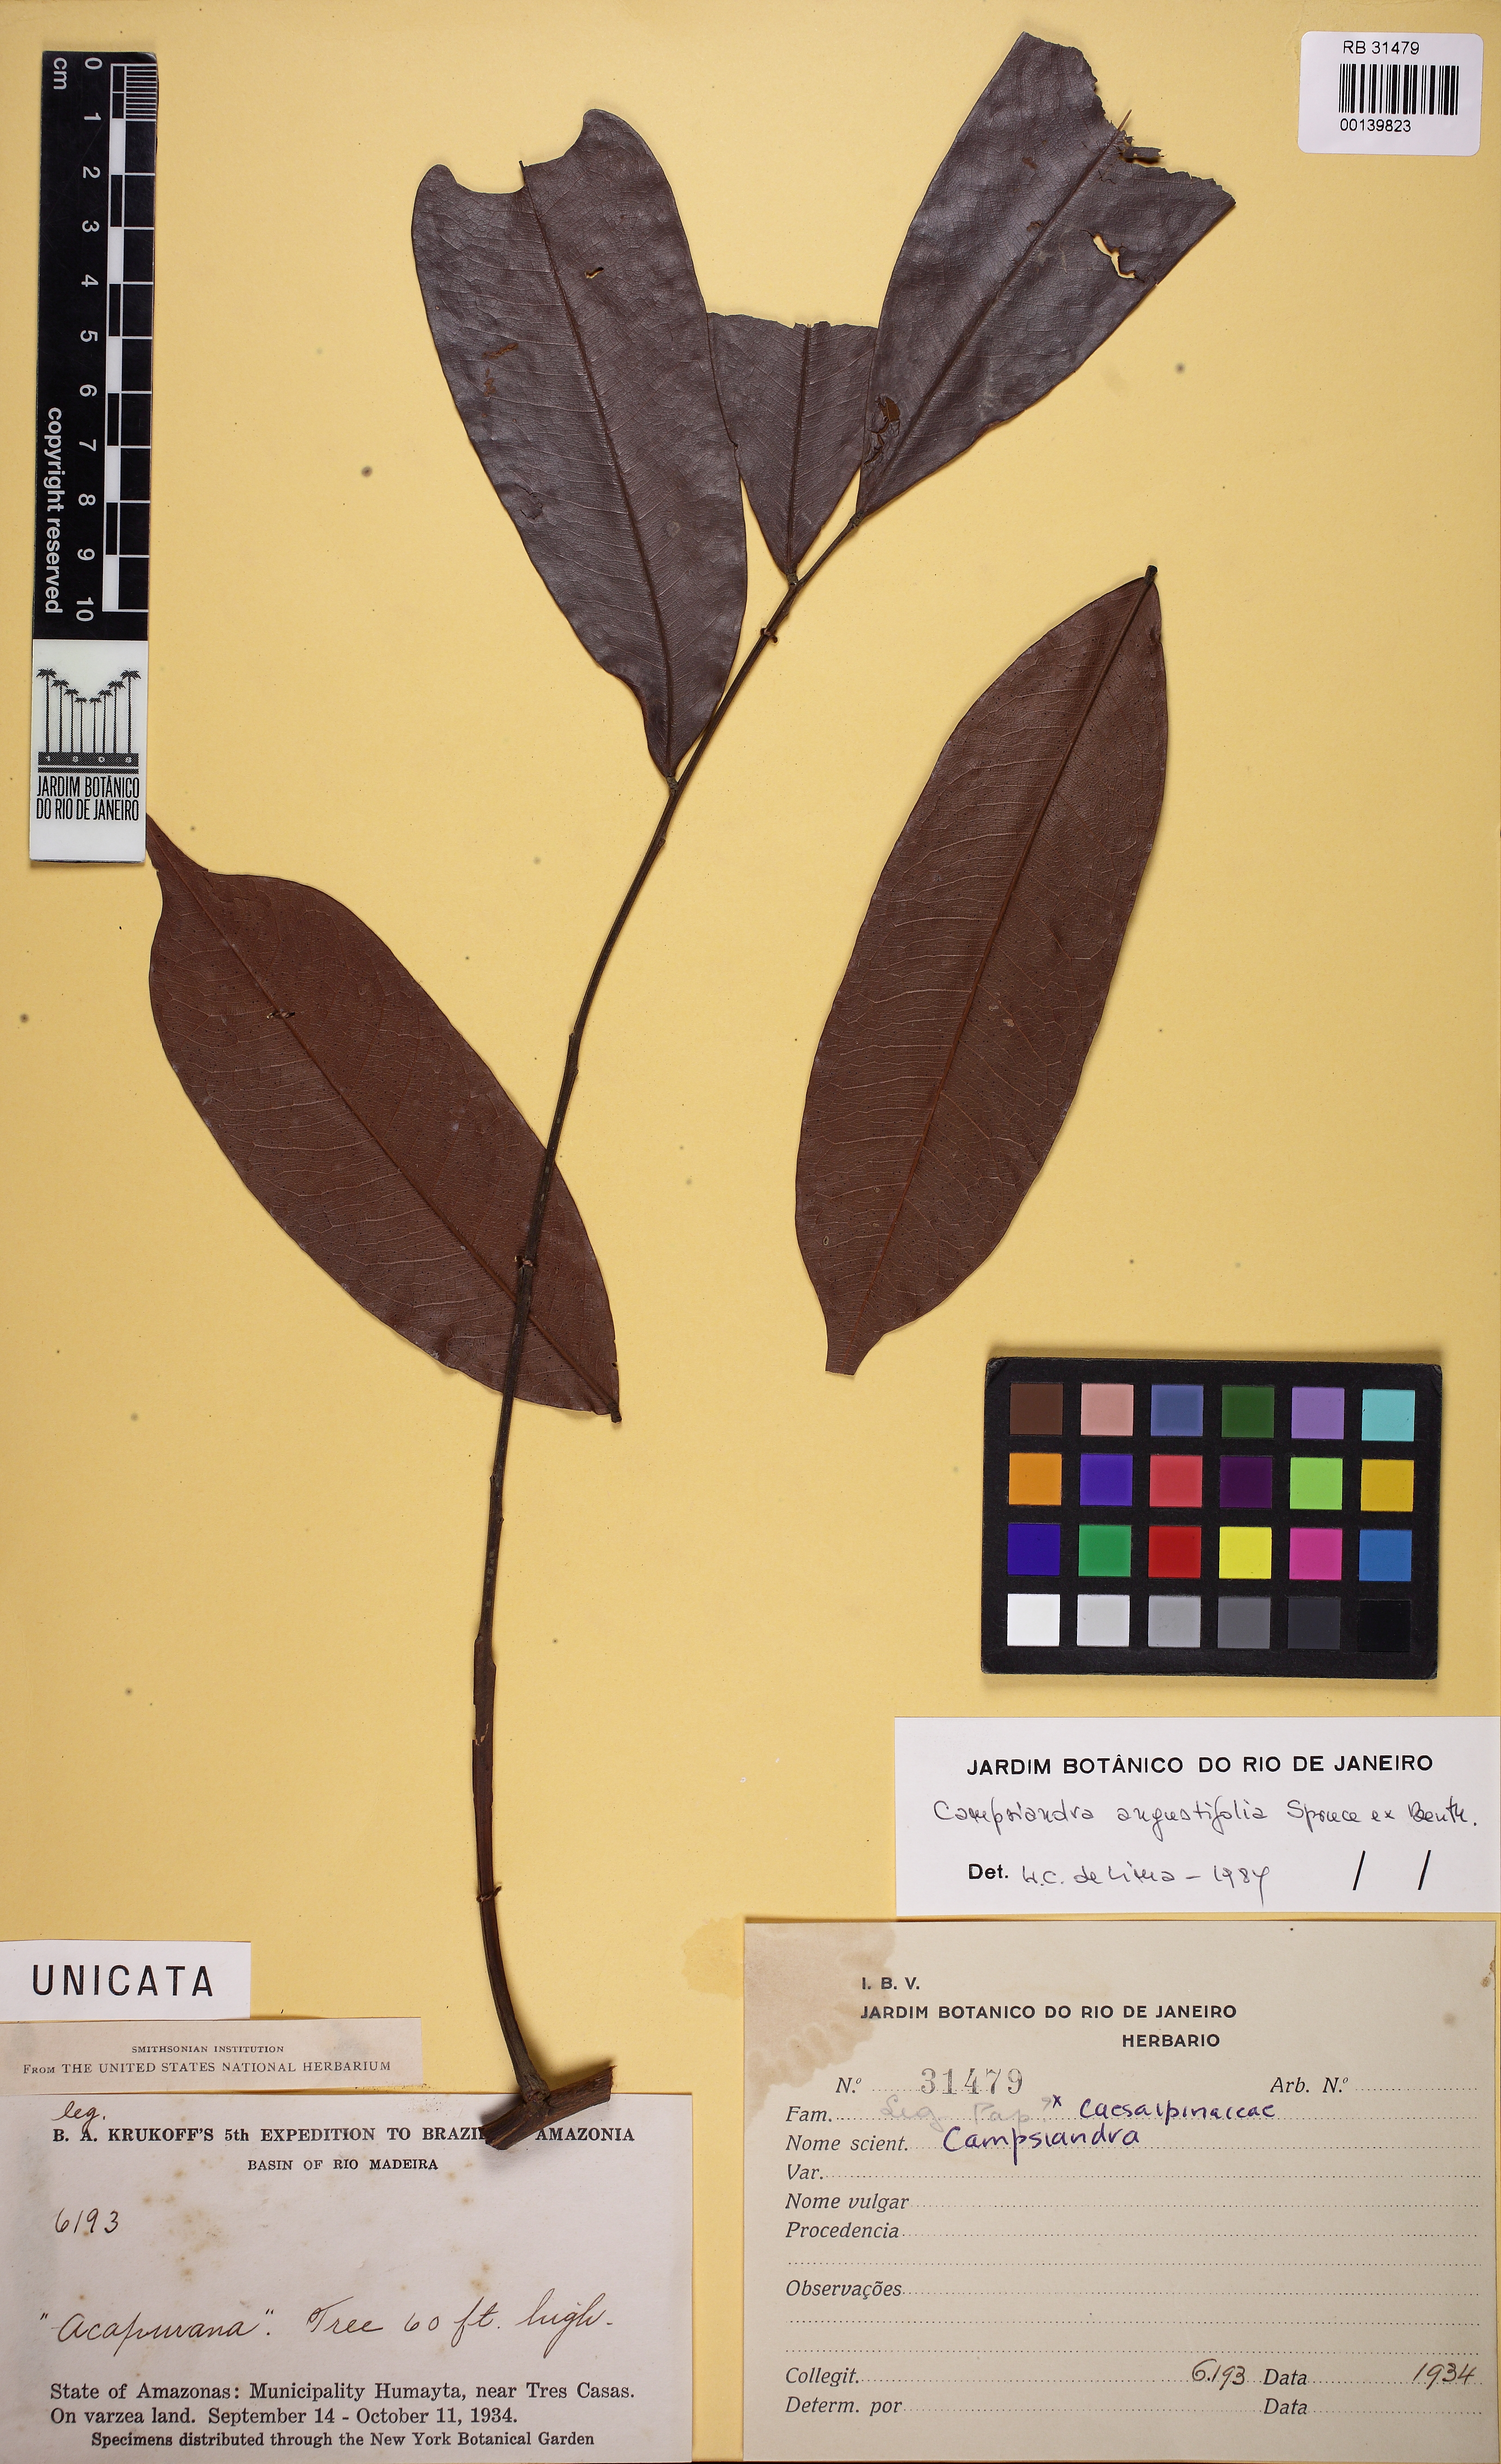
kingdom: Plantae
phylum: Tracheophyta
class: Magnoliopsida
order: Fabales
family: Fabaceae
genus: Campsiandra
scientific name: Campsiandra angustifolia
